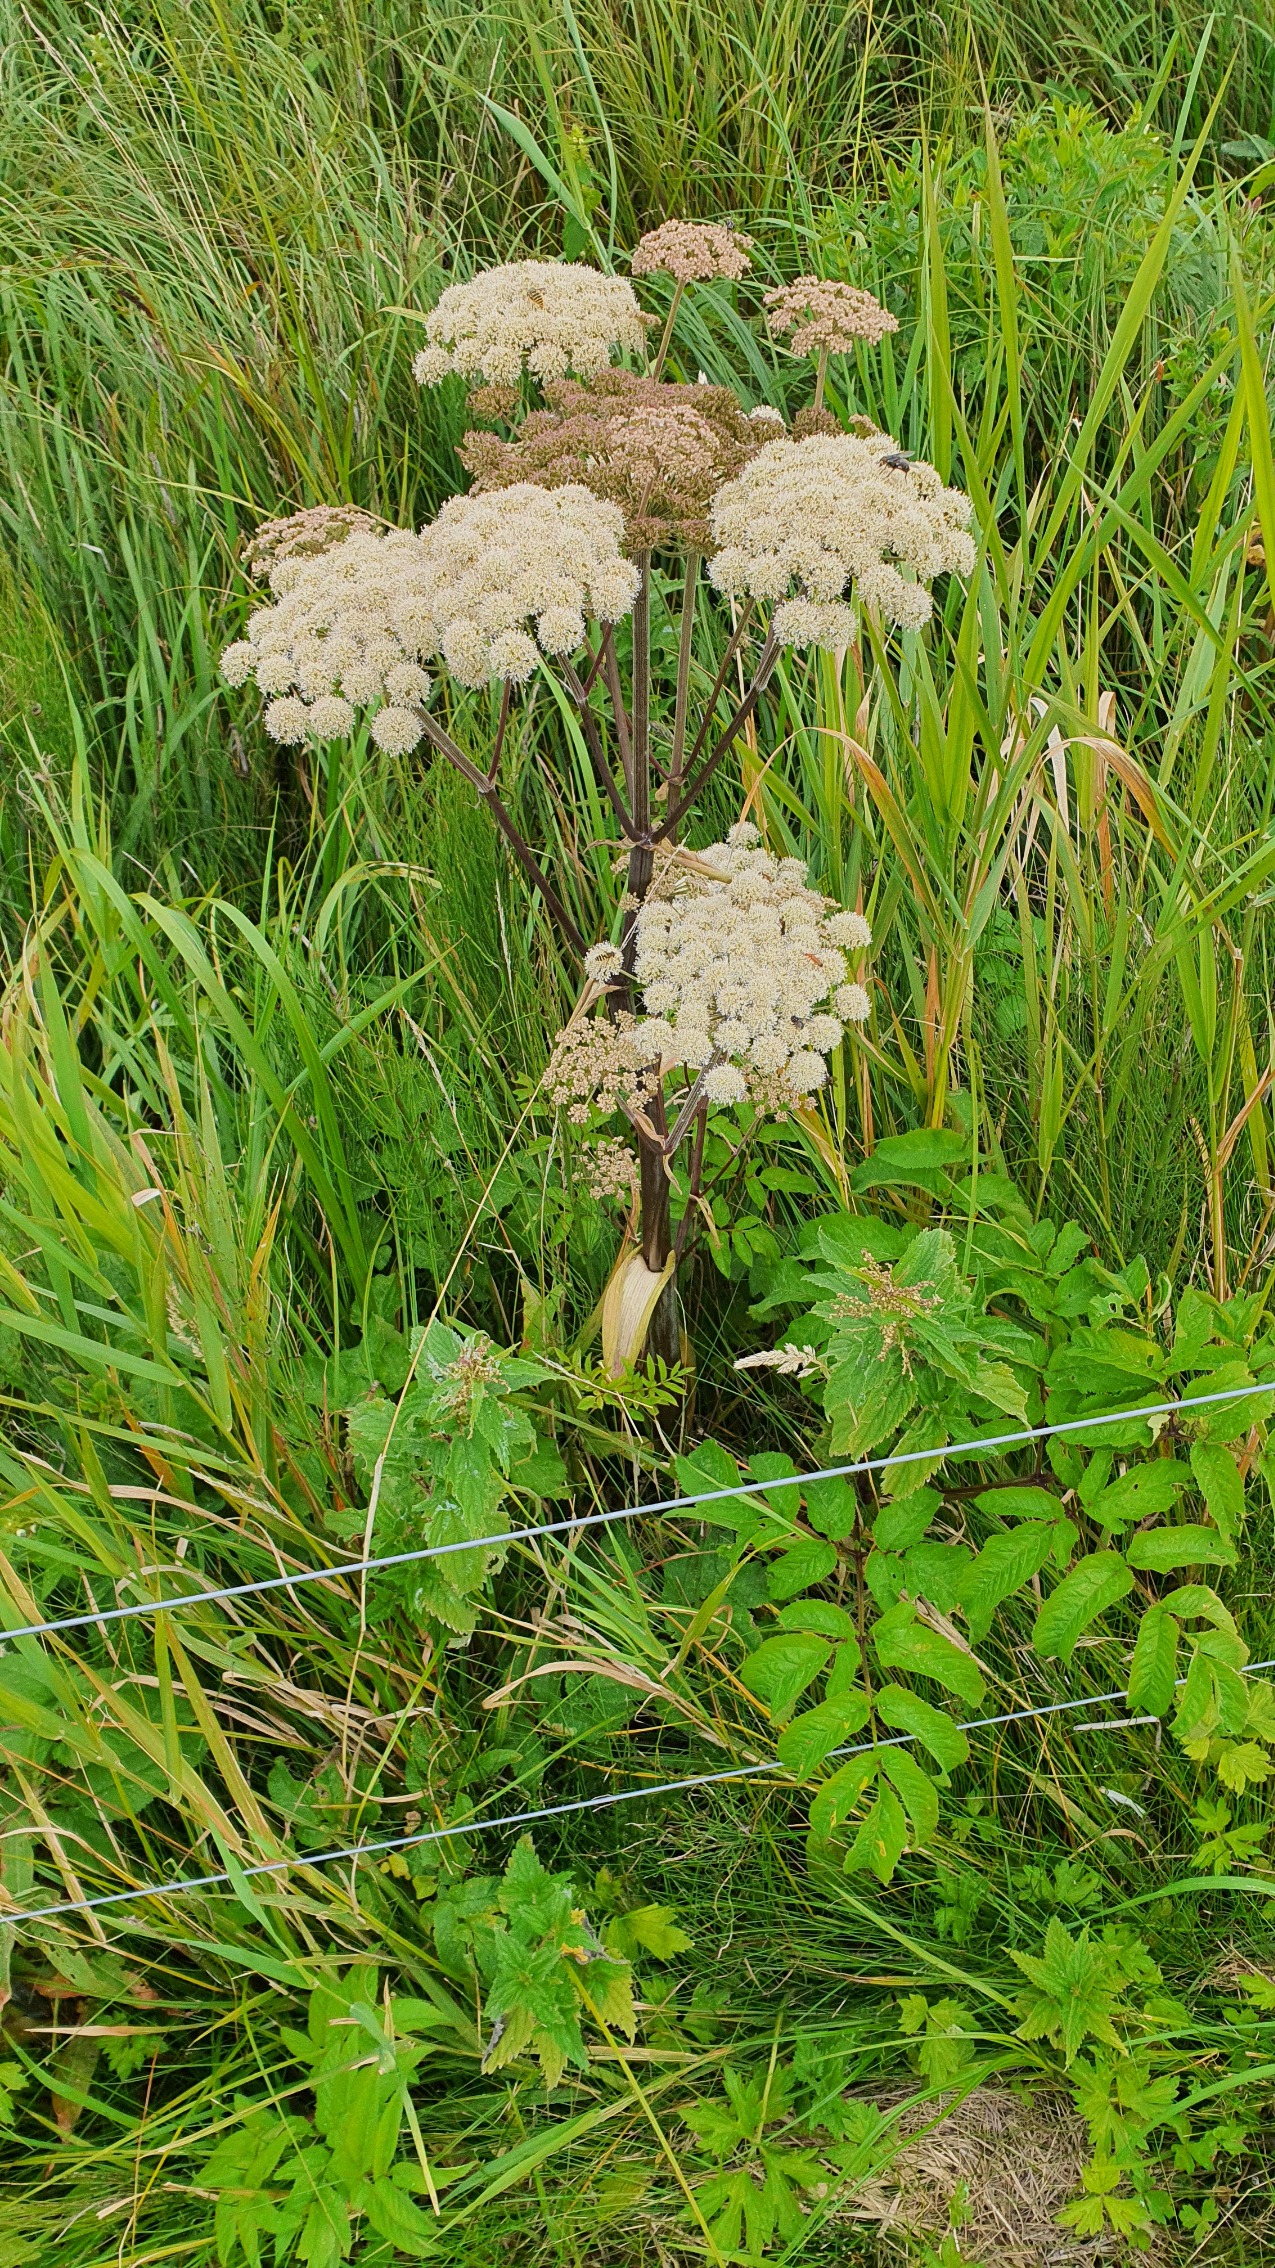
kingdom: Plantae
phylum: Tracheophyta
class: Magnoliopsida
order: Apiales
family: Apiaceae
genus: Angelica
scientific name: Angelica sylvestris
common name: Angelik
